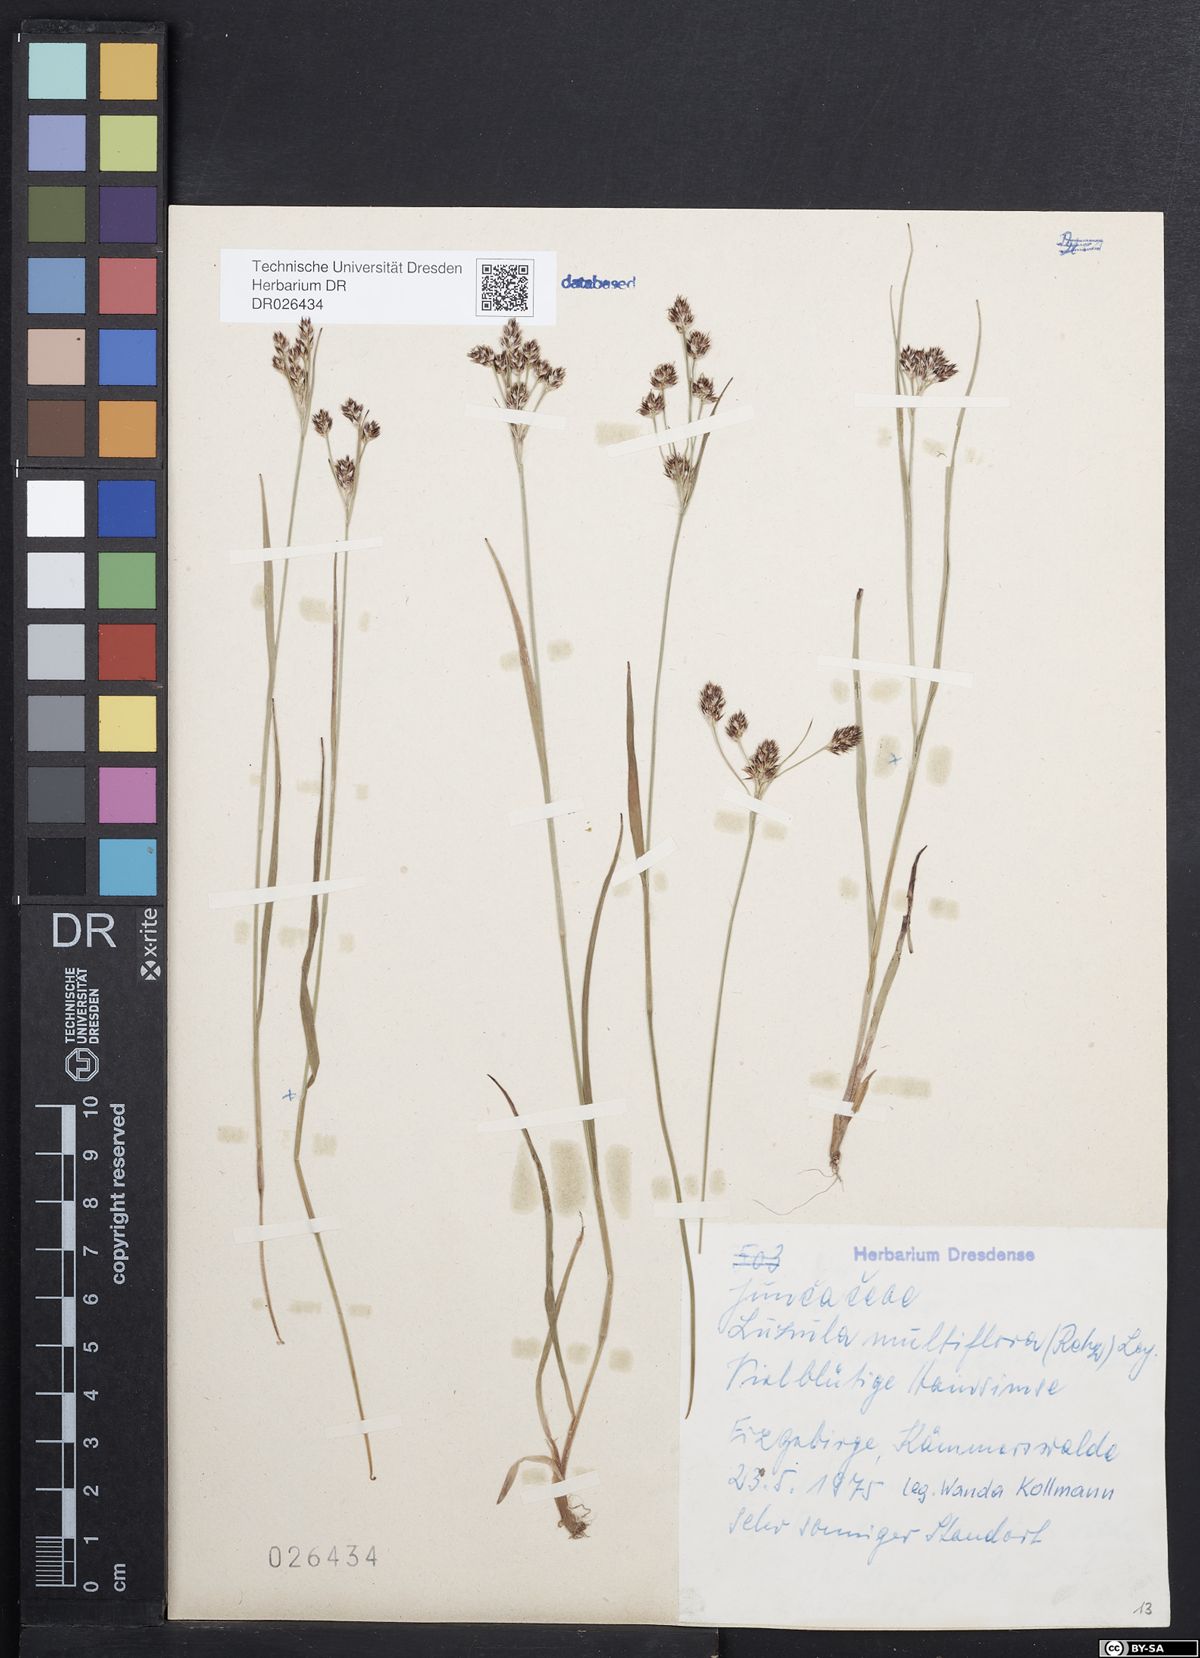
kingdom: Plantae
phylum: Tracheophyta
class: Liliopsida
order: Poales
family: Juncaceae
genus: Luzula
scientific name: Luzula multiflora
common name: Heath wood-rush
